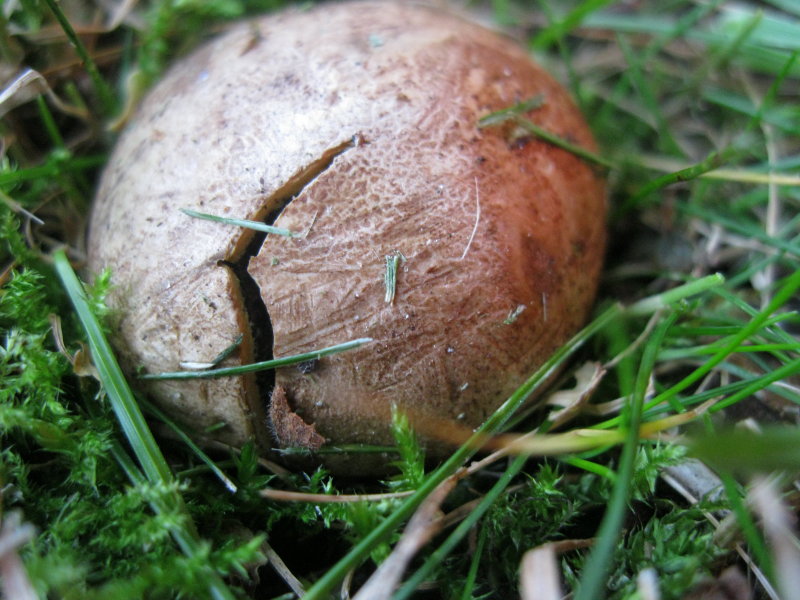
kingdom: Fungi
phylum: Basidiomycota
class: Agaricomycetes
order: Boletales
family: Sclerodermataceae
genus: Scleroderma
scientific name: Scleroderma bovista
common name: bovist-bruskbold
